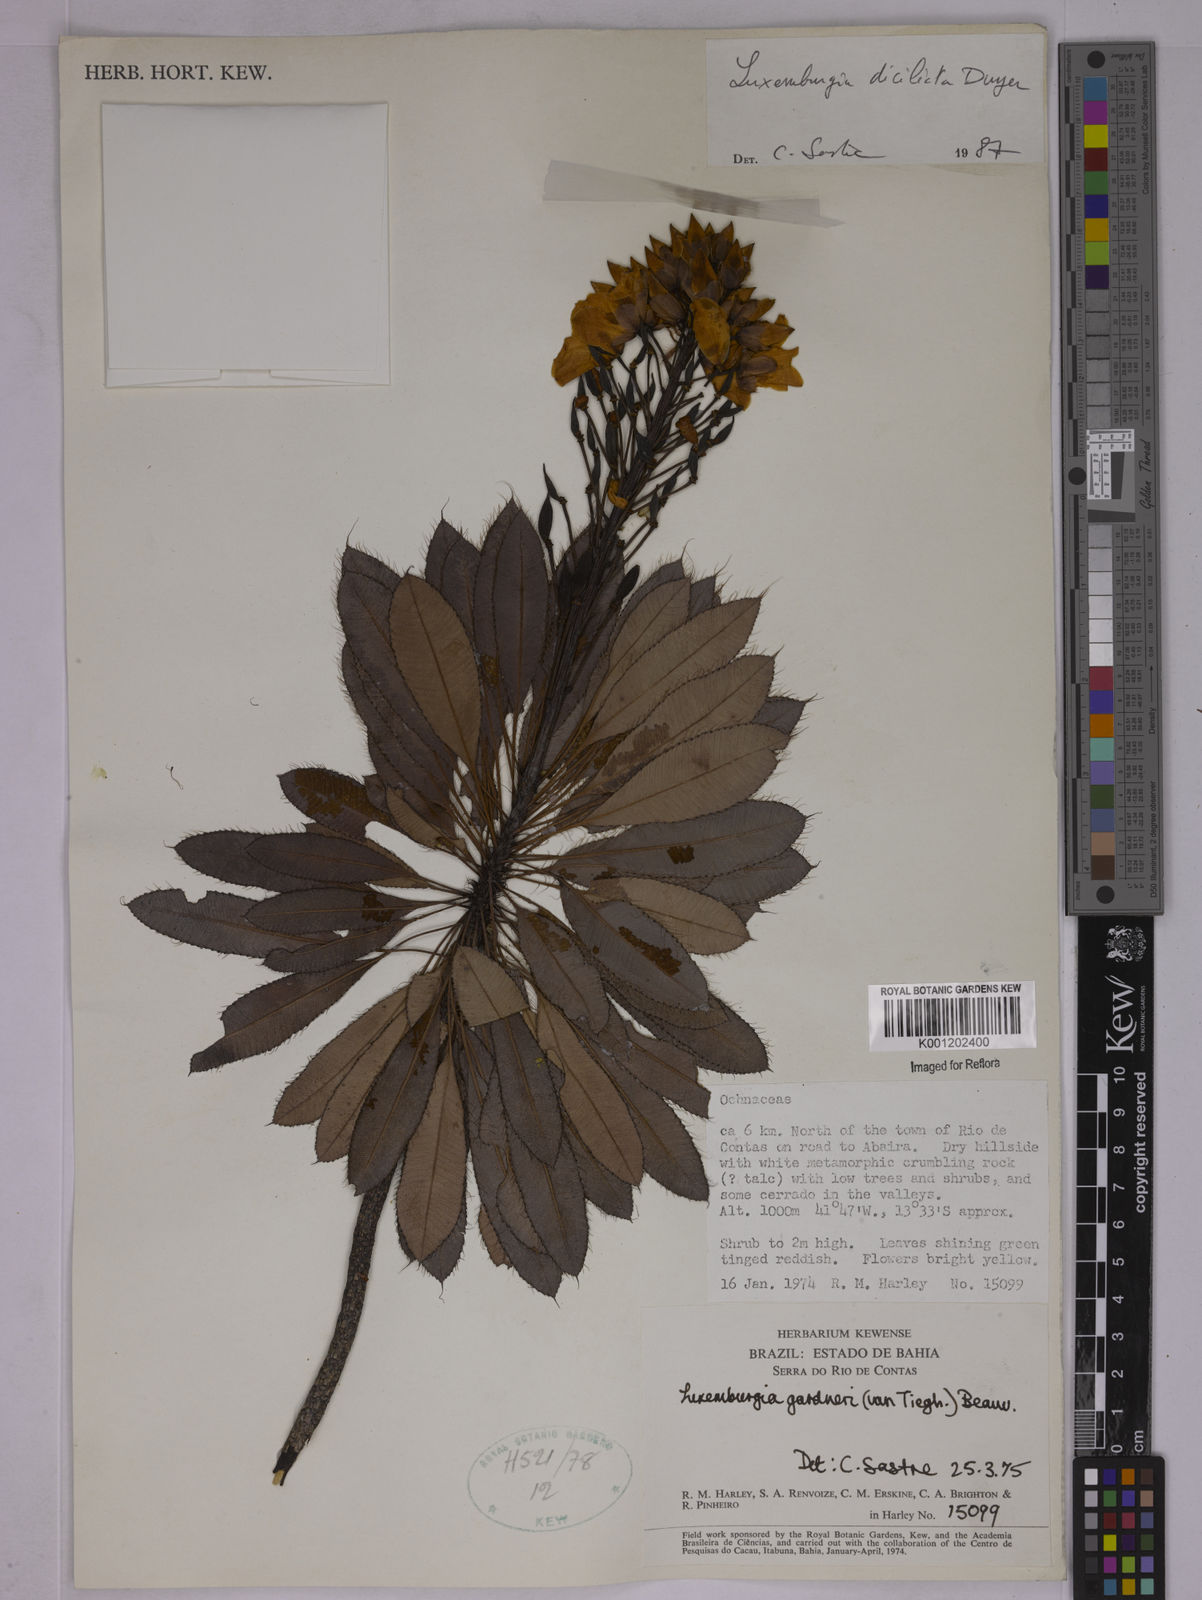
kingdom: Plantae
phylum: Tracheophyta
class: Magnoliopsida
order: Malpighiales
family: Ochnaceae
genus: Luxemburgia
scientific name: Luxemburgia diciliata
